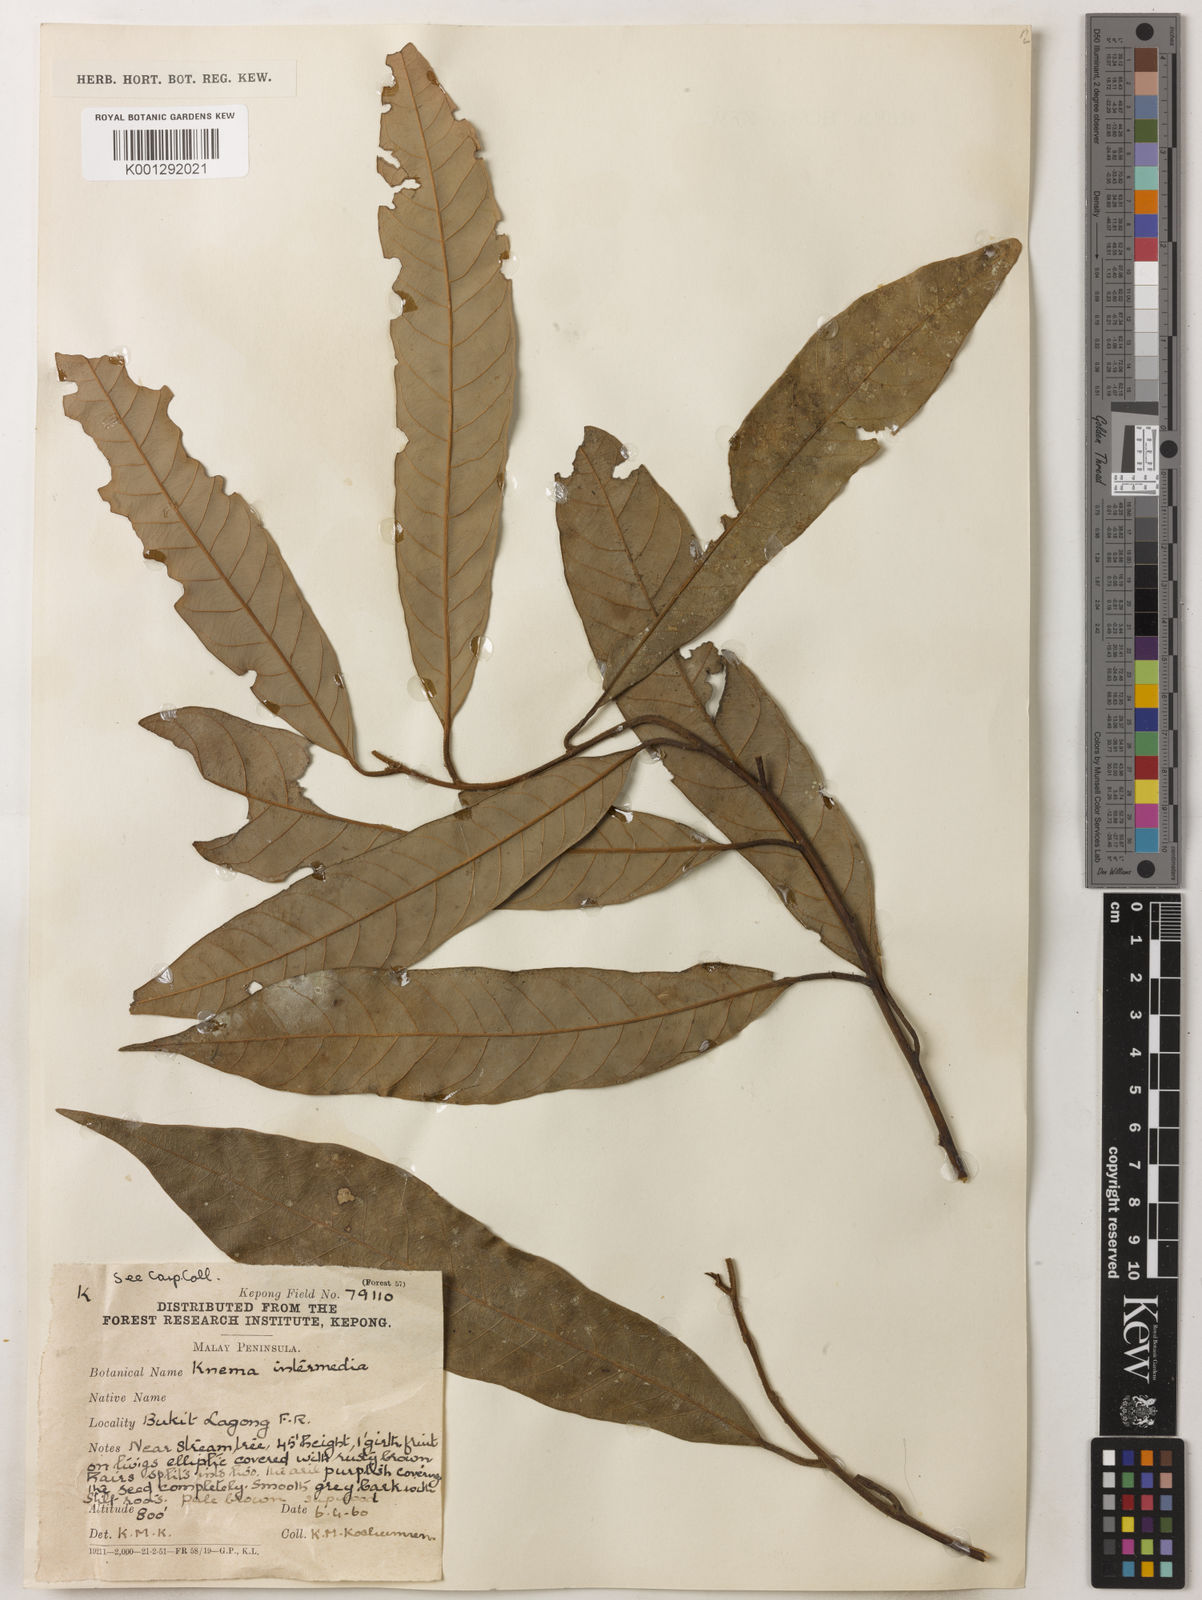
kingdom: Plantae
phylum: Tracheophyta
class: Magnoliopsida
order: Magnoliales
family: Myristicaceae
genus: Knema
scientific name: Knema intermedia
